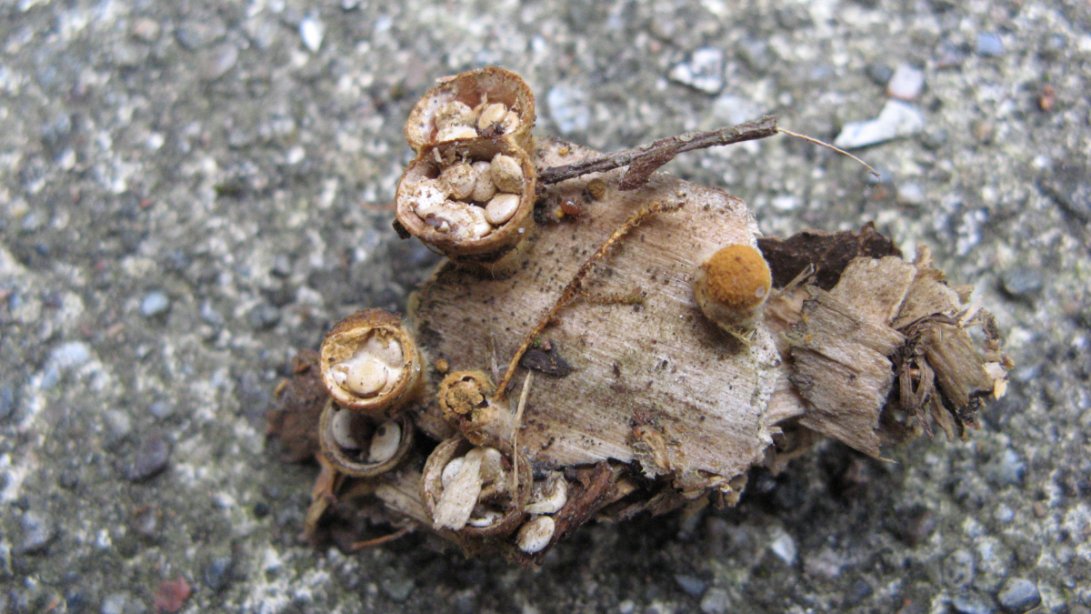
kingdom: Fungi
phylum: Basidiomycota
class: Agaricomycetes
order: Agaricales
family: Nidulariaceae
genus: Crucibulum
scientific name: Crucibulum crucibuliforme
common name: krukkesvamp
